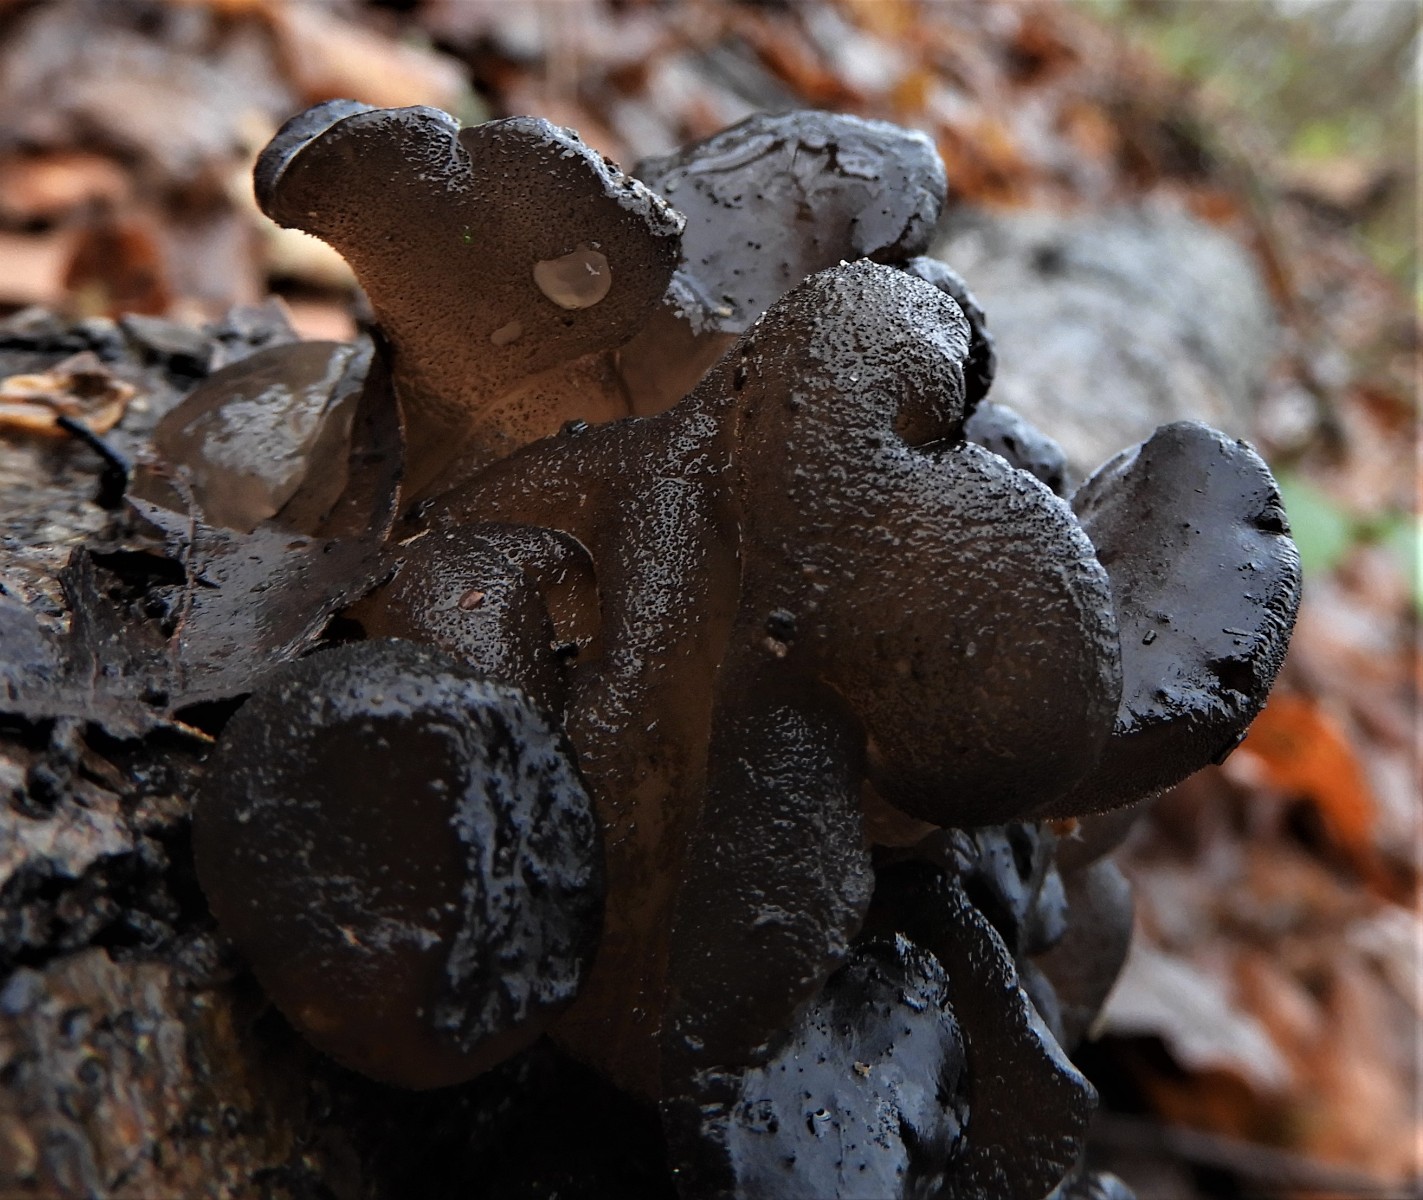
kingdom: Fungi
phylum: Basidiomycota
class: Agaricomycetes
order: Auriculariales
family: Auriculariaceae
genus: Exidia
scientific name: Exidia glandulosa
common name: ege-bævretop
